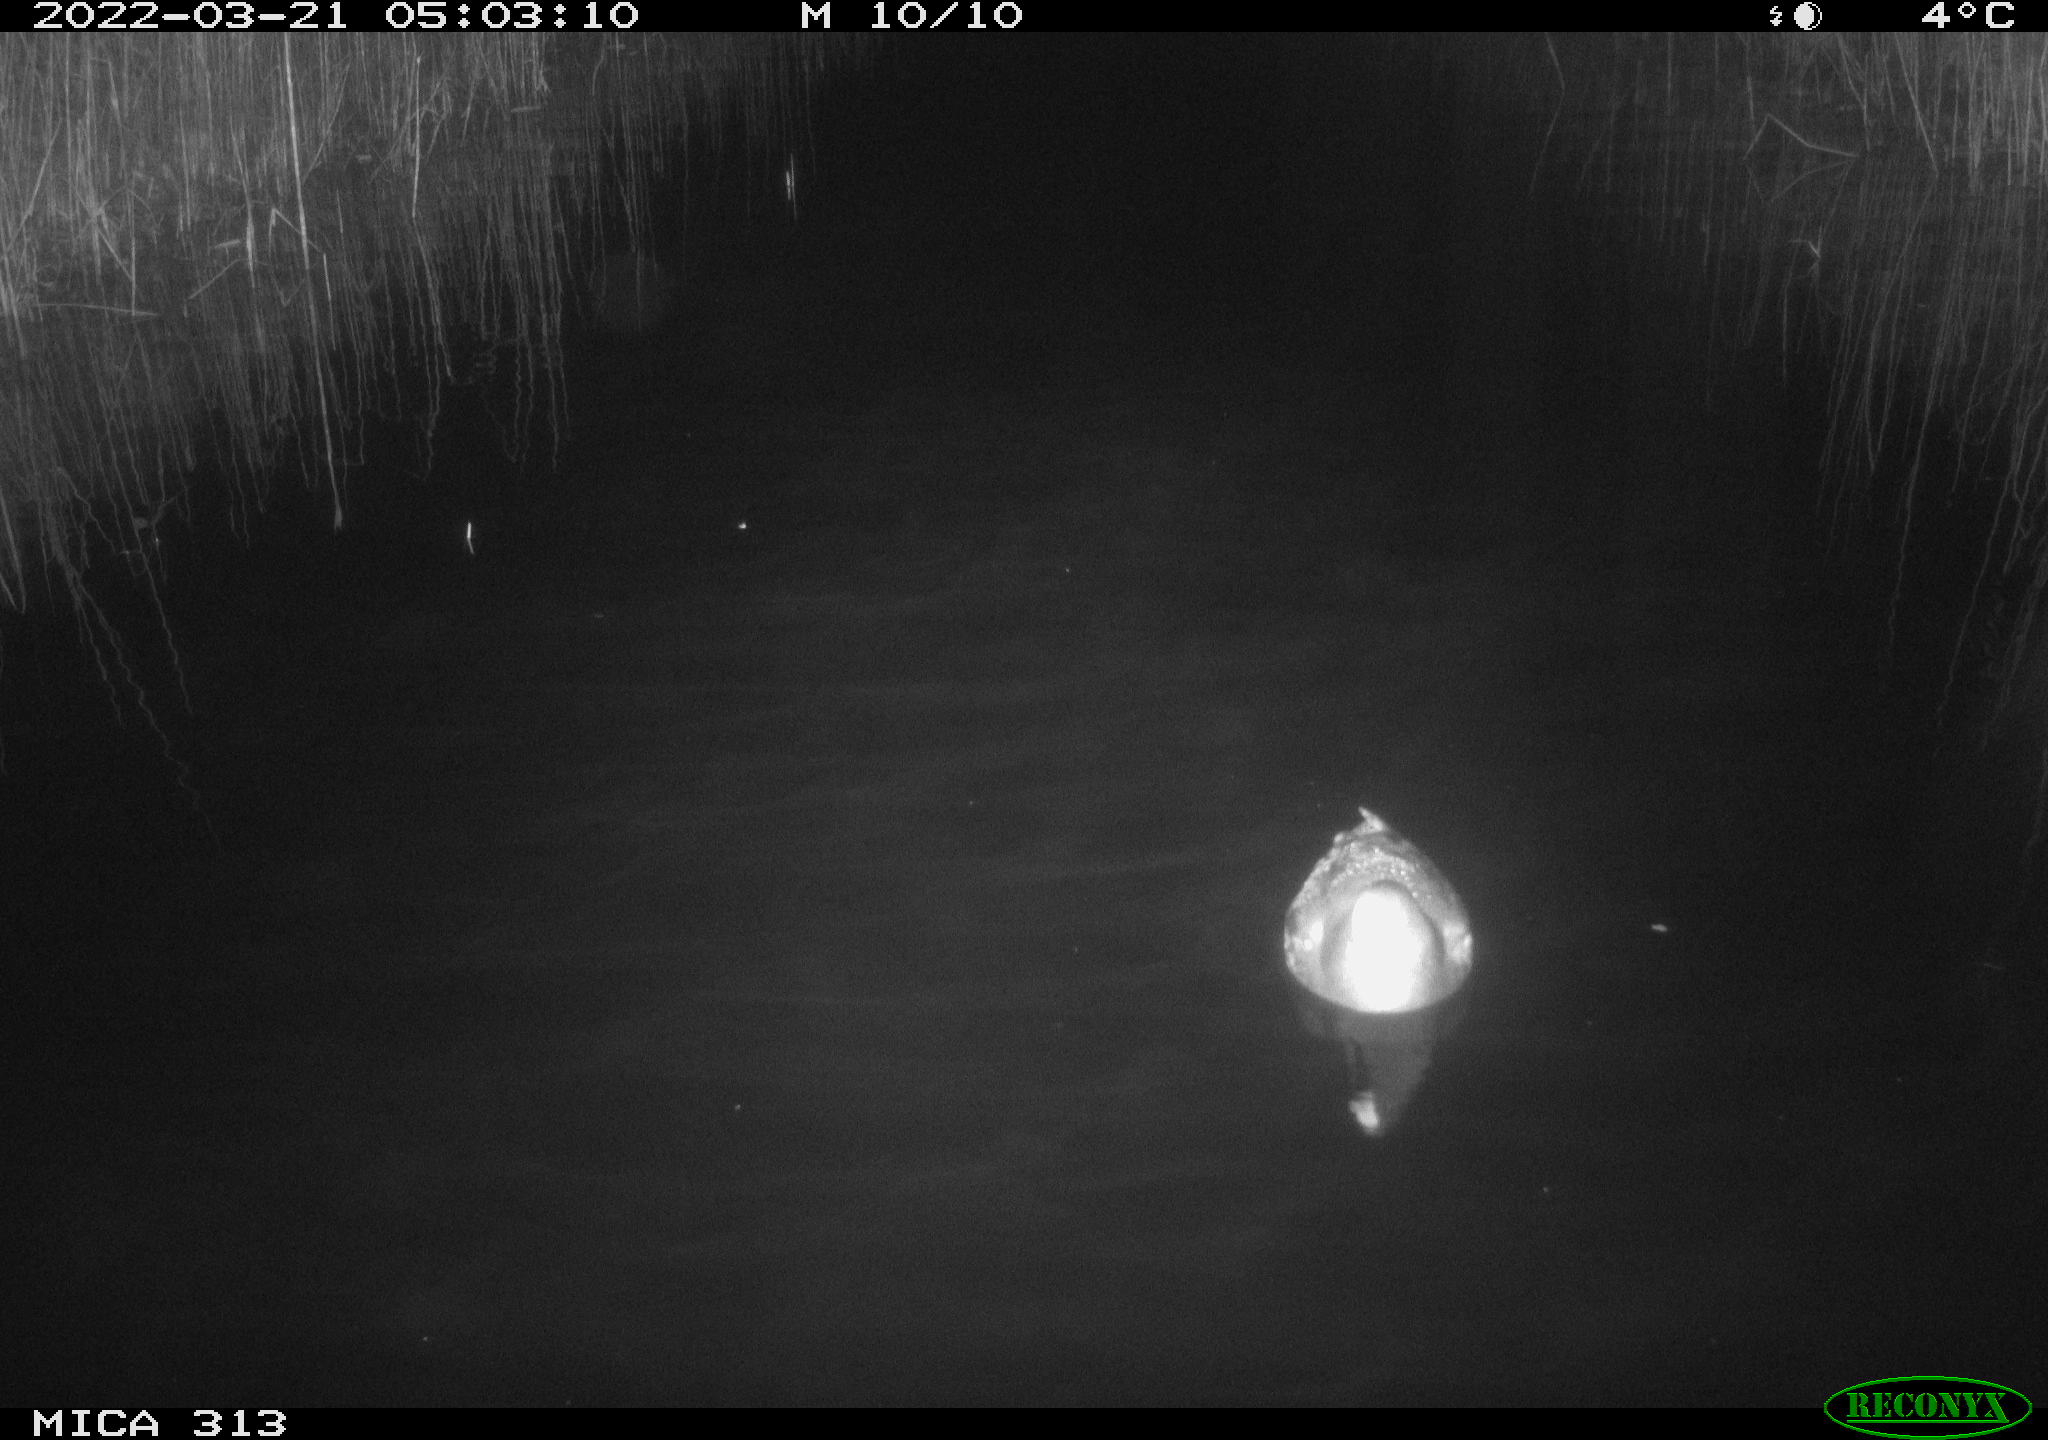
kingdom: Animalia
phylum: Chordata
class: Aves
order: Gruiformes
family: Rallidae
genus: Gallinula
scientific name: Gallinula chloropus
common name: Common moorhen
